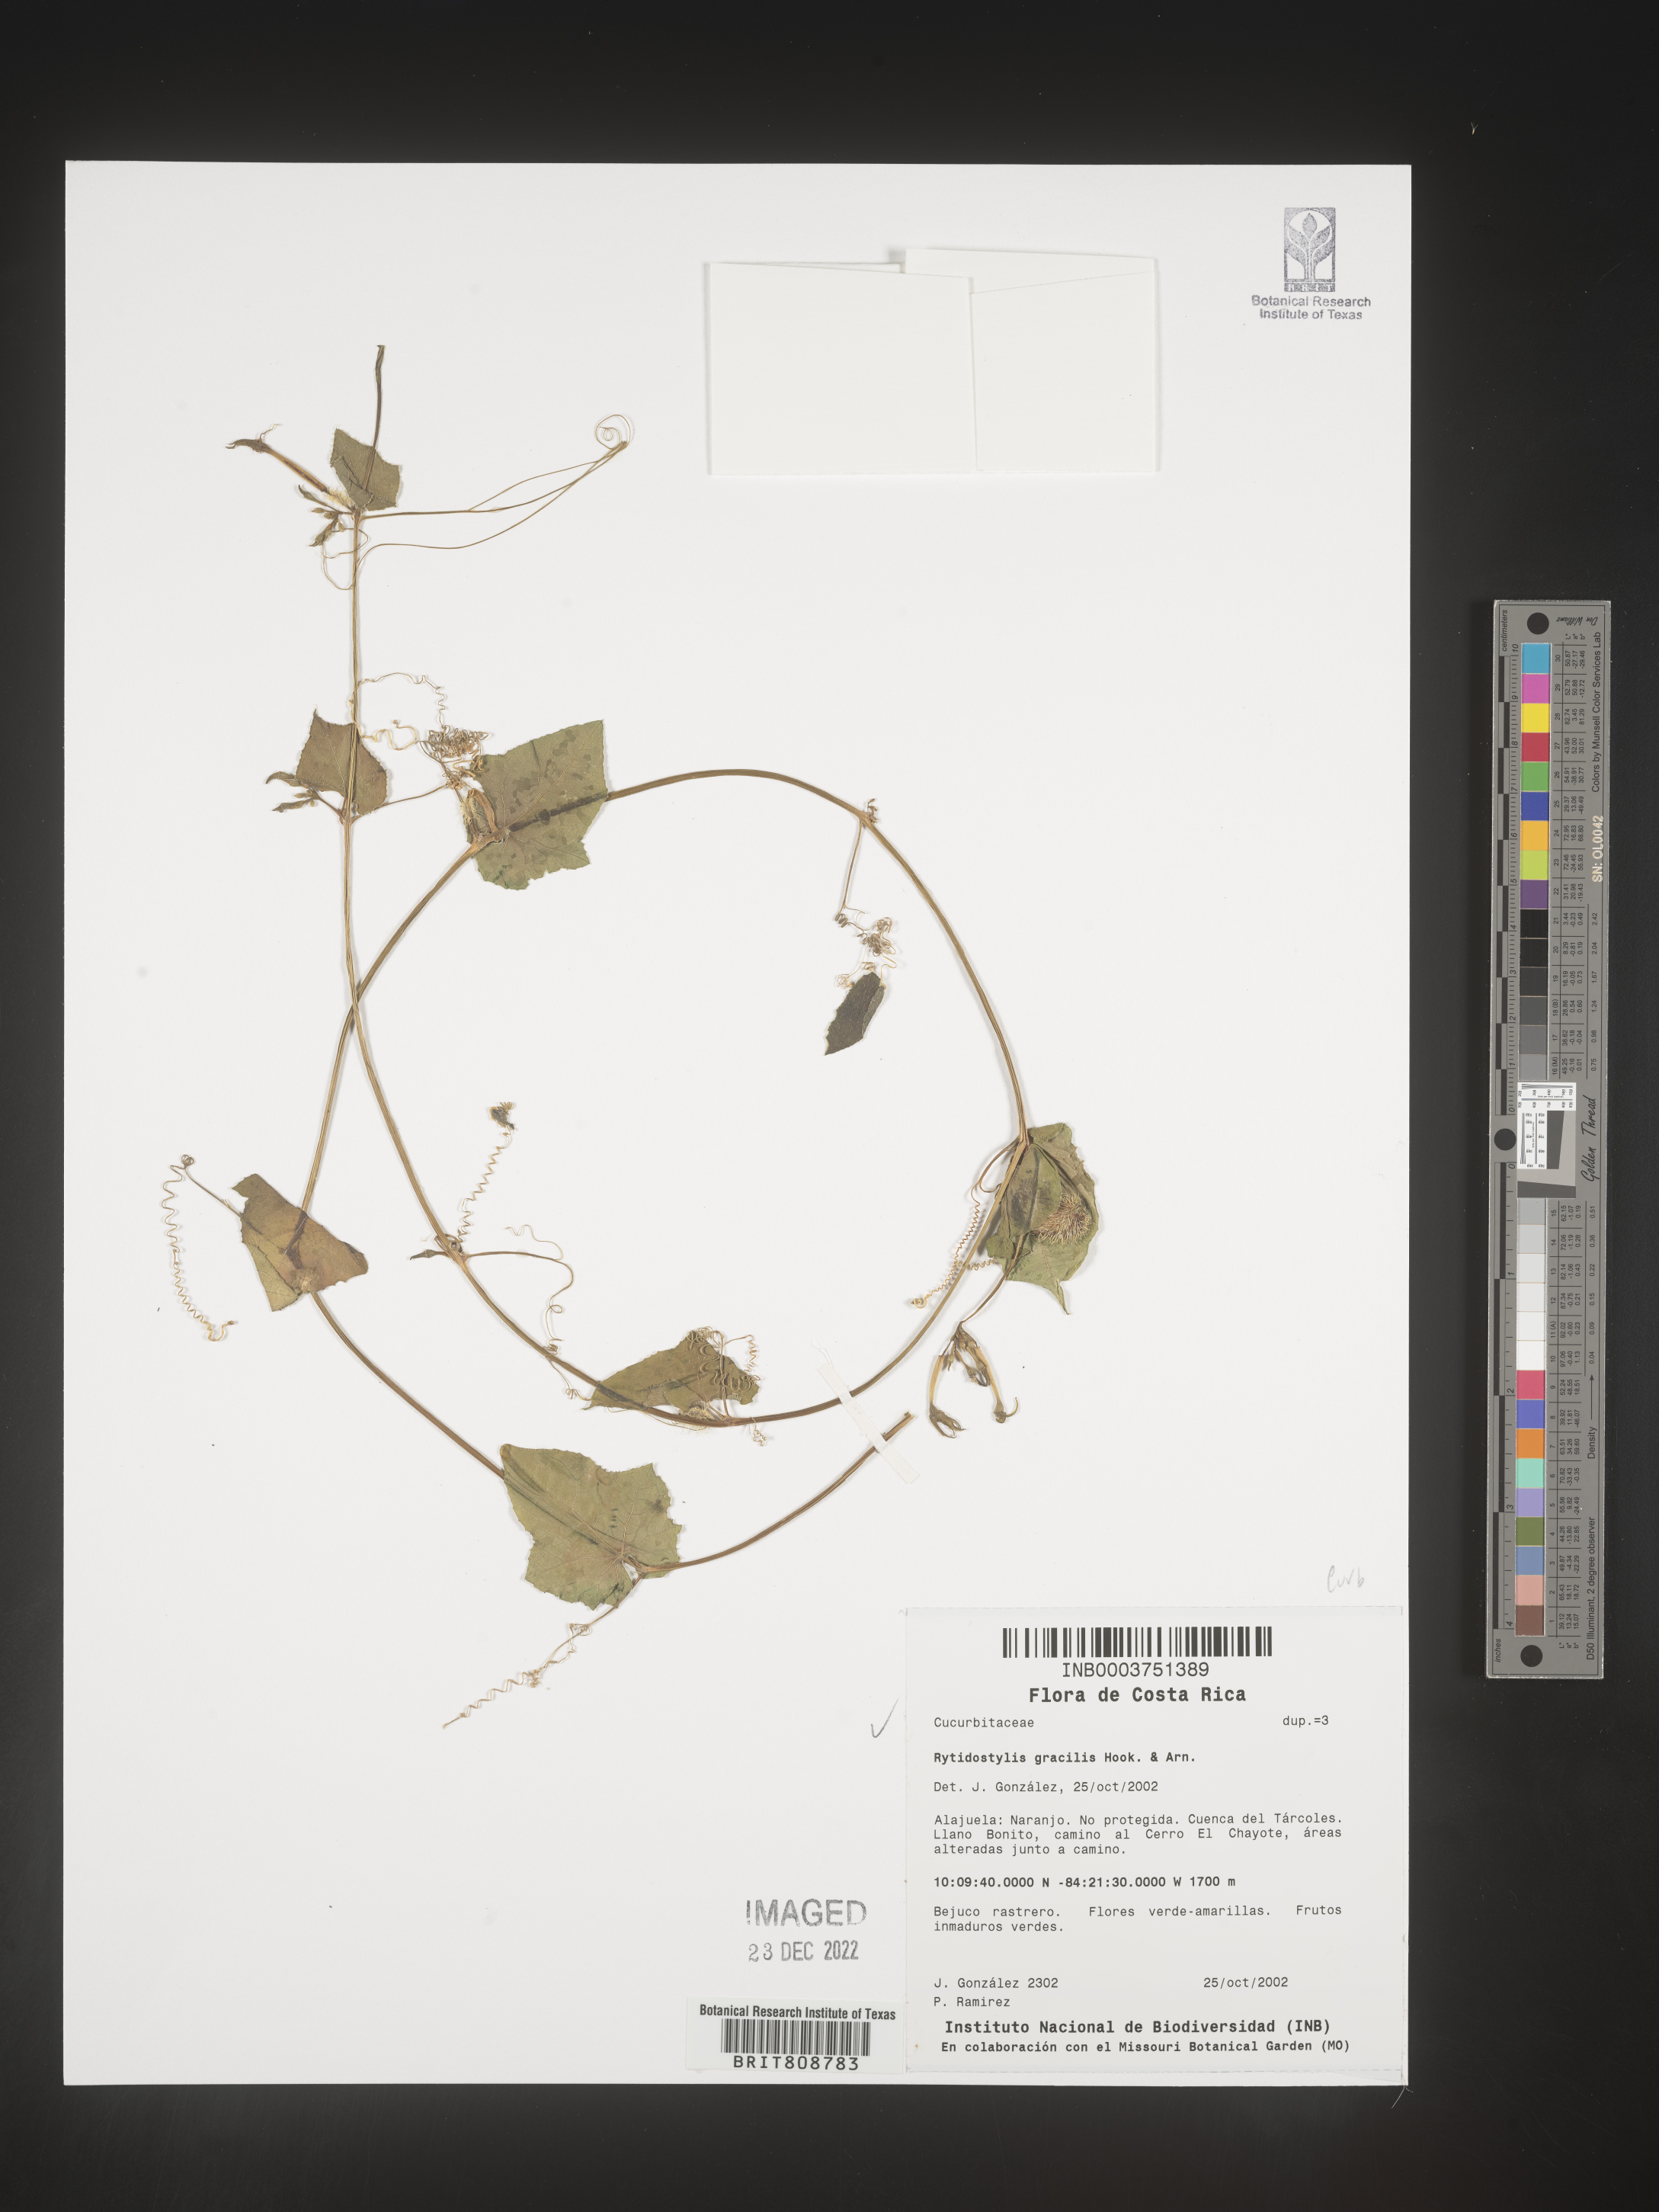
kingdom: Plantae
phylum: Tracheophyta
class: Magnoliopsida
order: Cucurbitales
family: Cucurbitaceae
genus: Cyclanthera
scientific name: Cyclanthera
